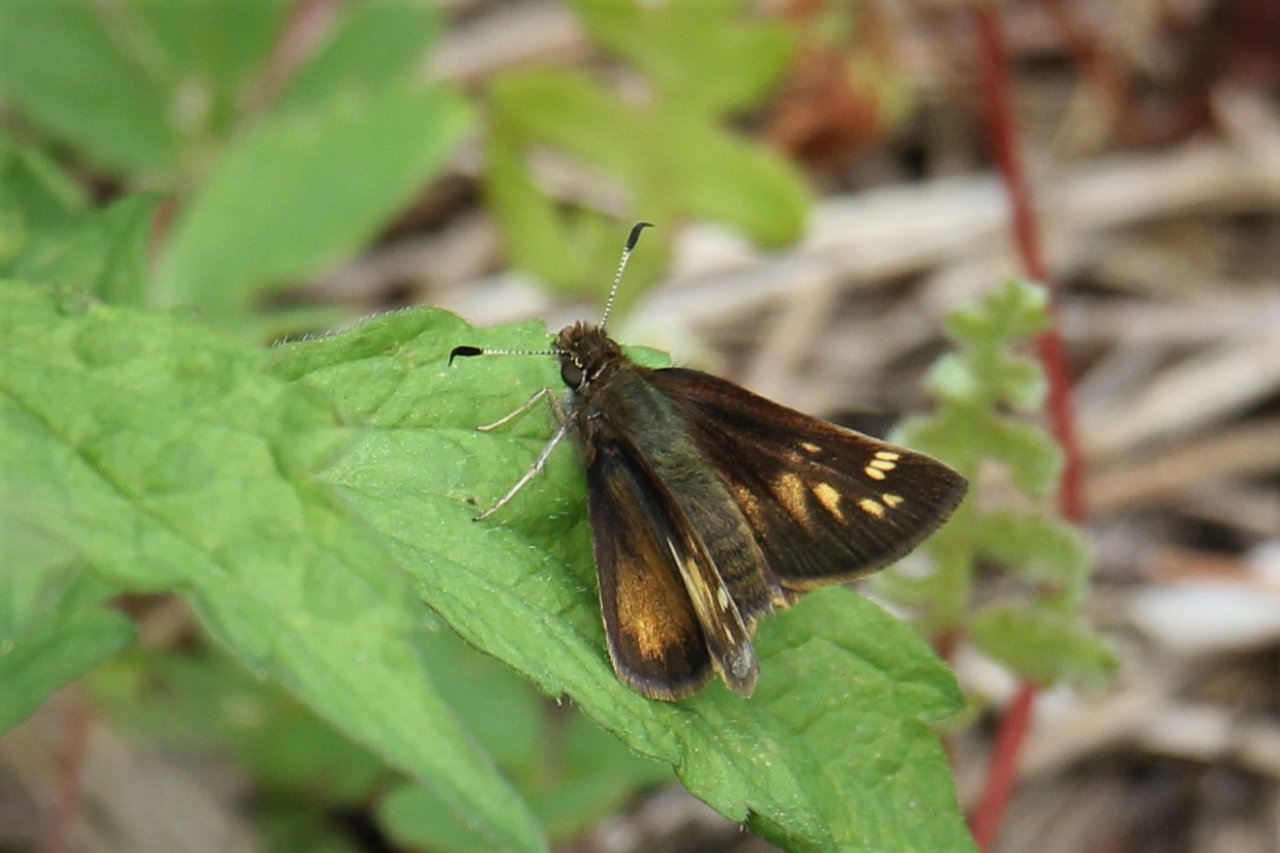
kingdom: Animalia
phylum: Arthropoda
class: Insecta
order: Lepidoptera
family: Hesperiidae
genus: Polites
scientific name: Polites themistocles
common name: Tawny-edged Skipper
